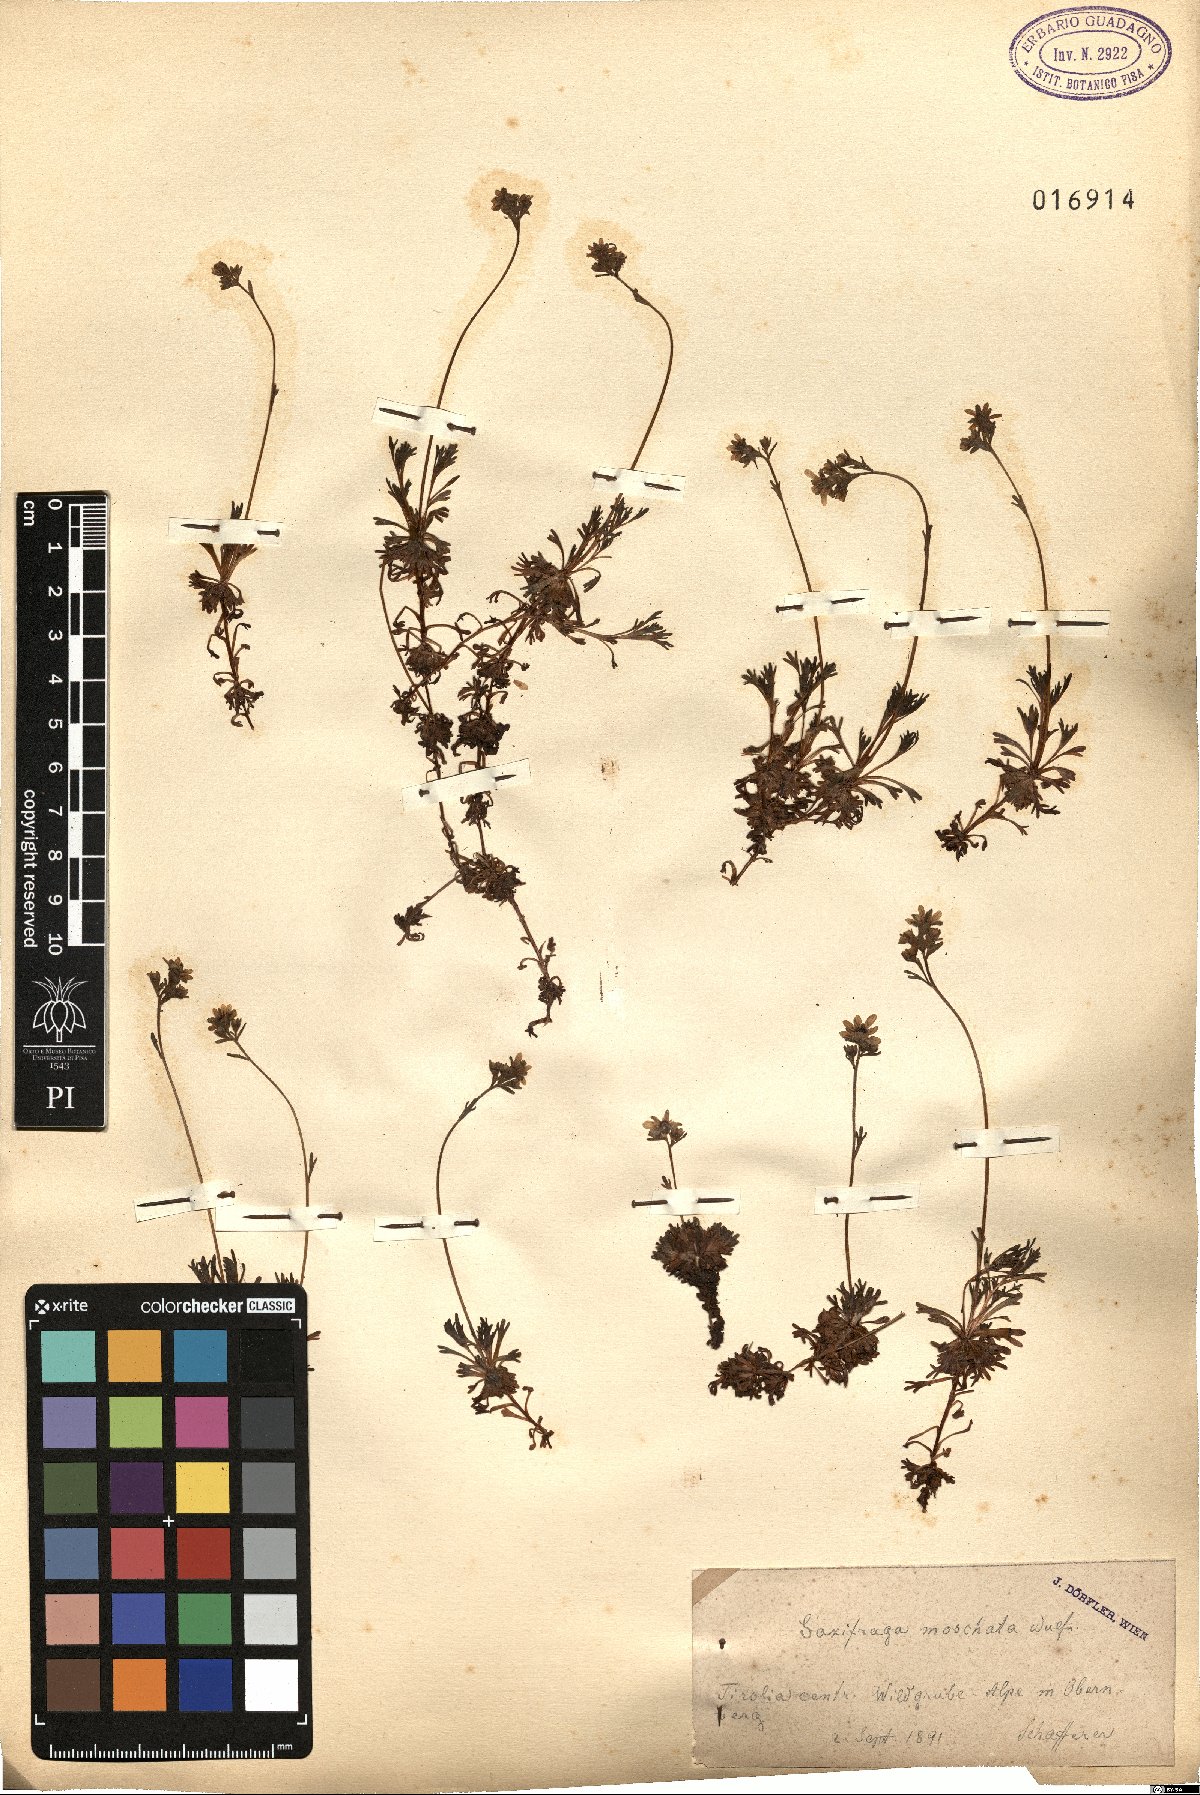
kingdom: Plantae
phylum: Tracheophyta
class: Magnoliopsida
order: Saxifragales
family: Saxifragaceae
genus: Saxifraga
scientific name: Saxifraga moschata
